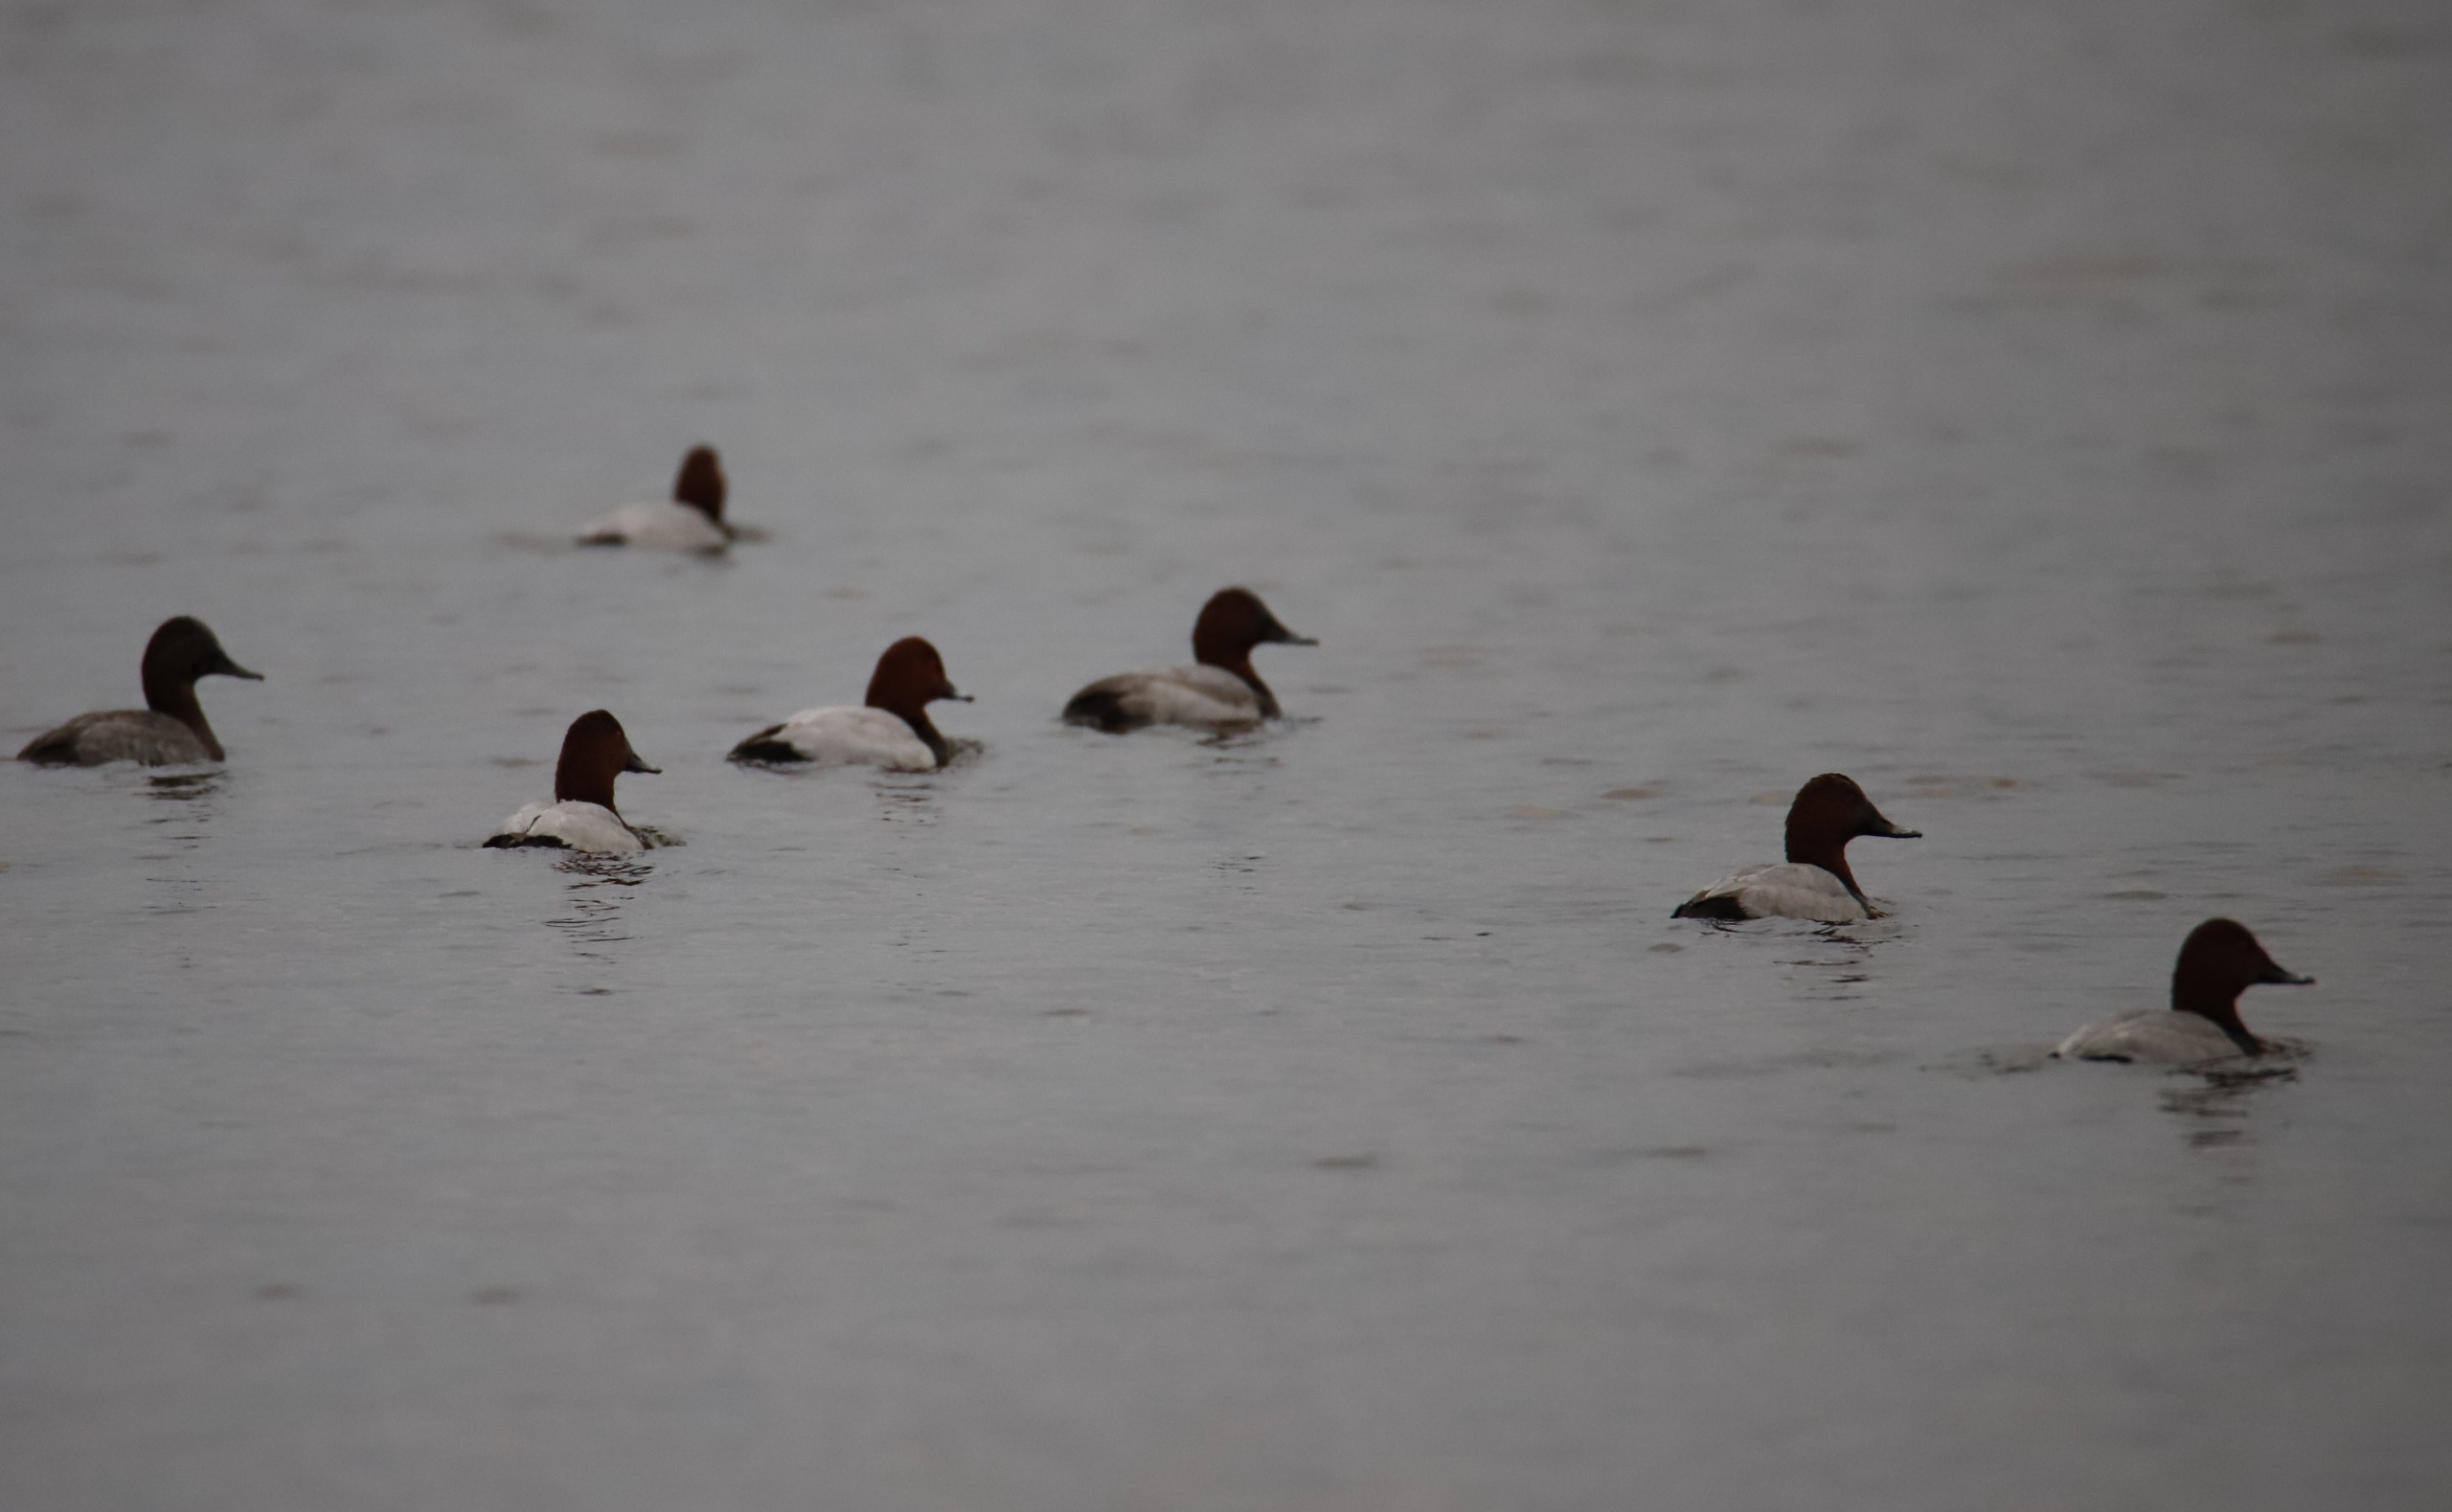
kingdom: Animalia
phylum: Chordata
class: Aves
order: Anseriformes
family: Anatidae
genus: Aythya
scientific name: Aythya ferina
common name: Taffeland
